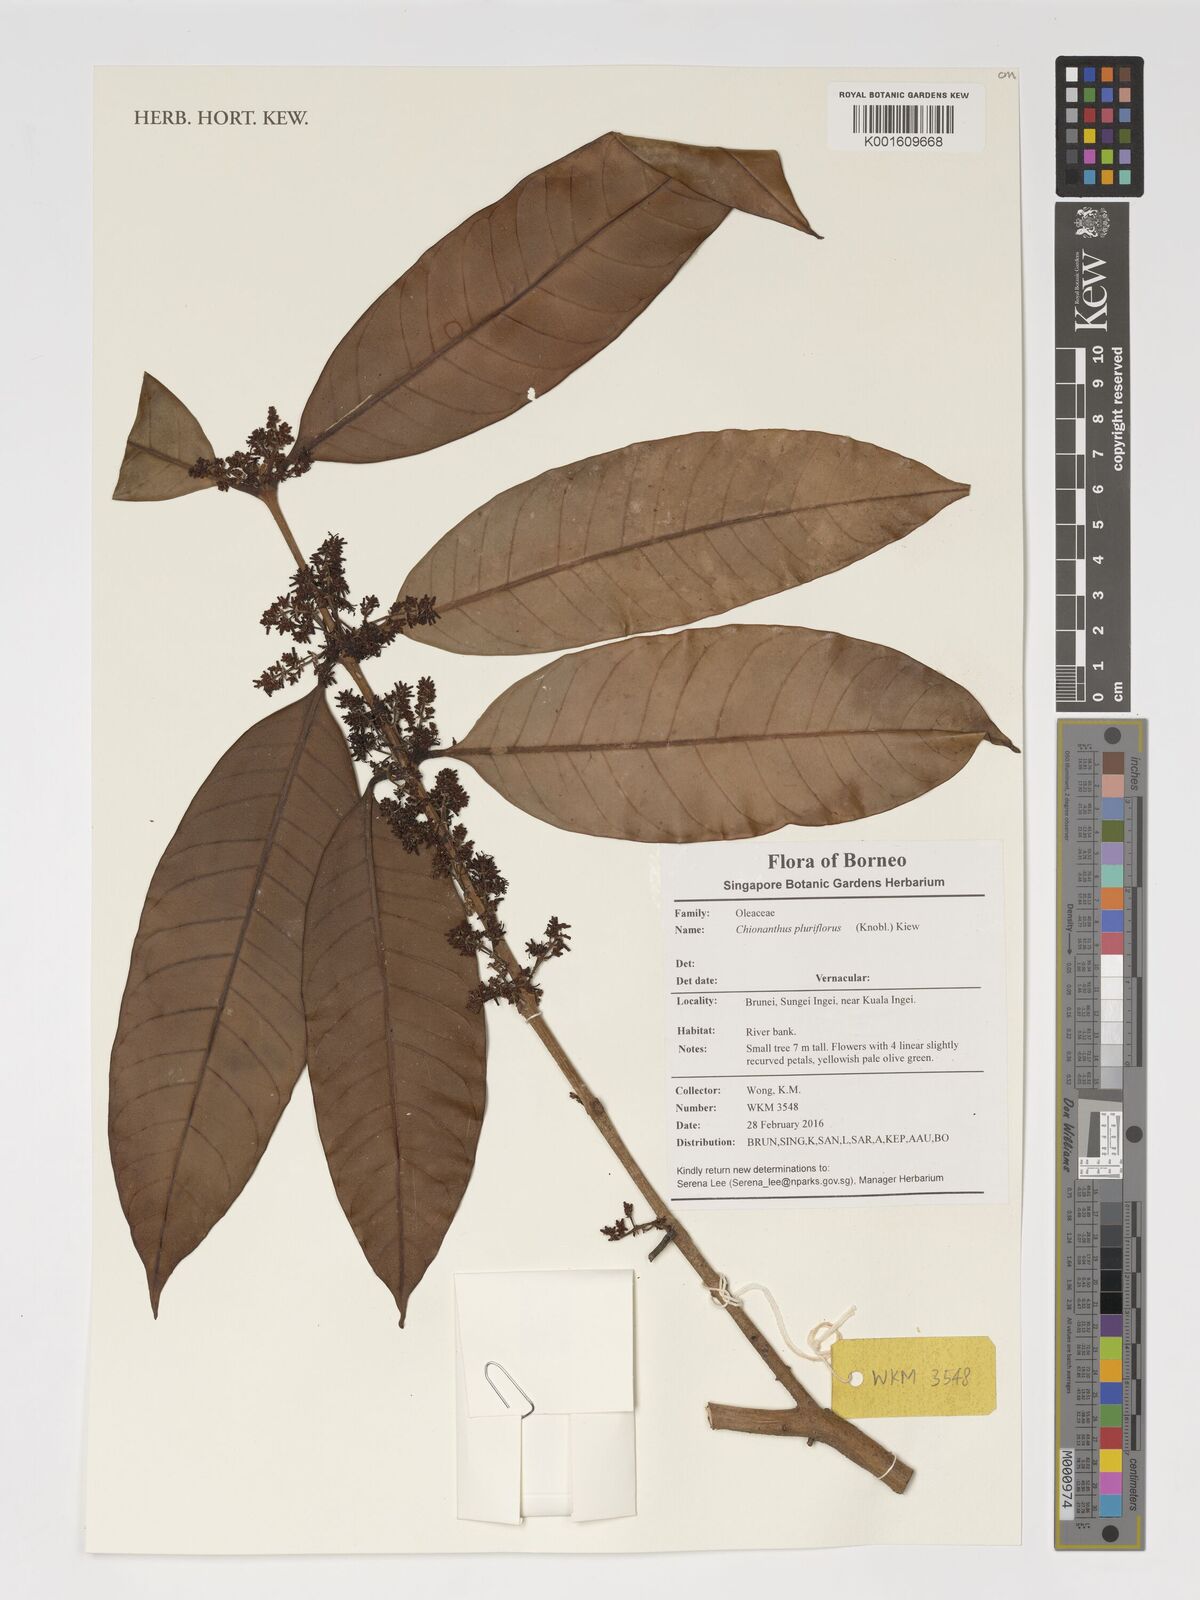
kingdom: Plantae
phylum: Tracheophyta
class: Magnoliopsida
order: Lamiales
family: Oleaceae
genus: Chionanthus
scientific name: Chionanthus pluriflorus
